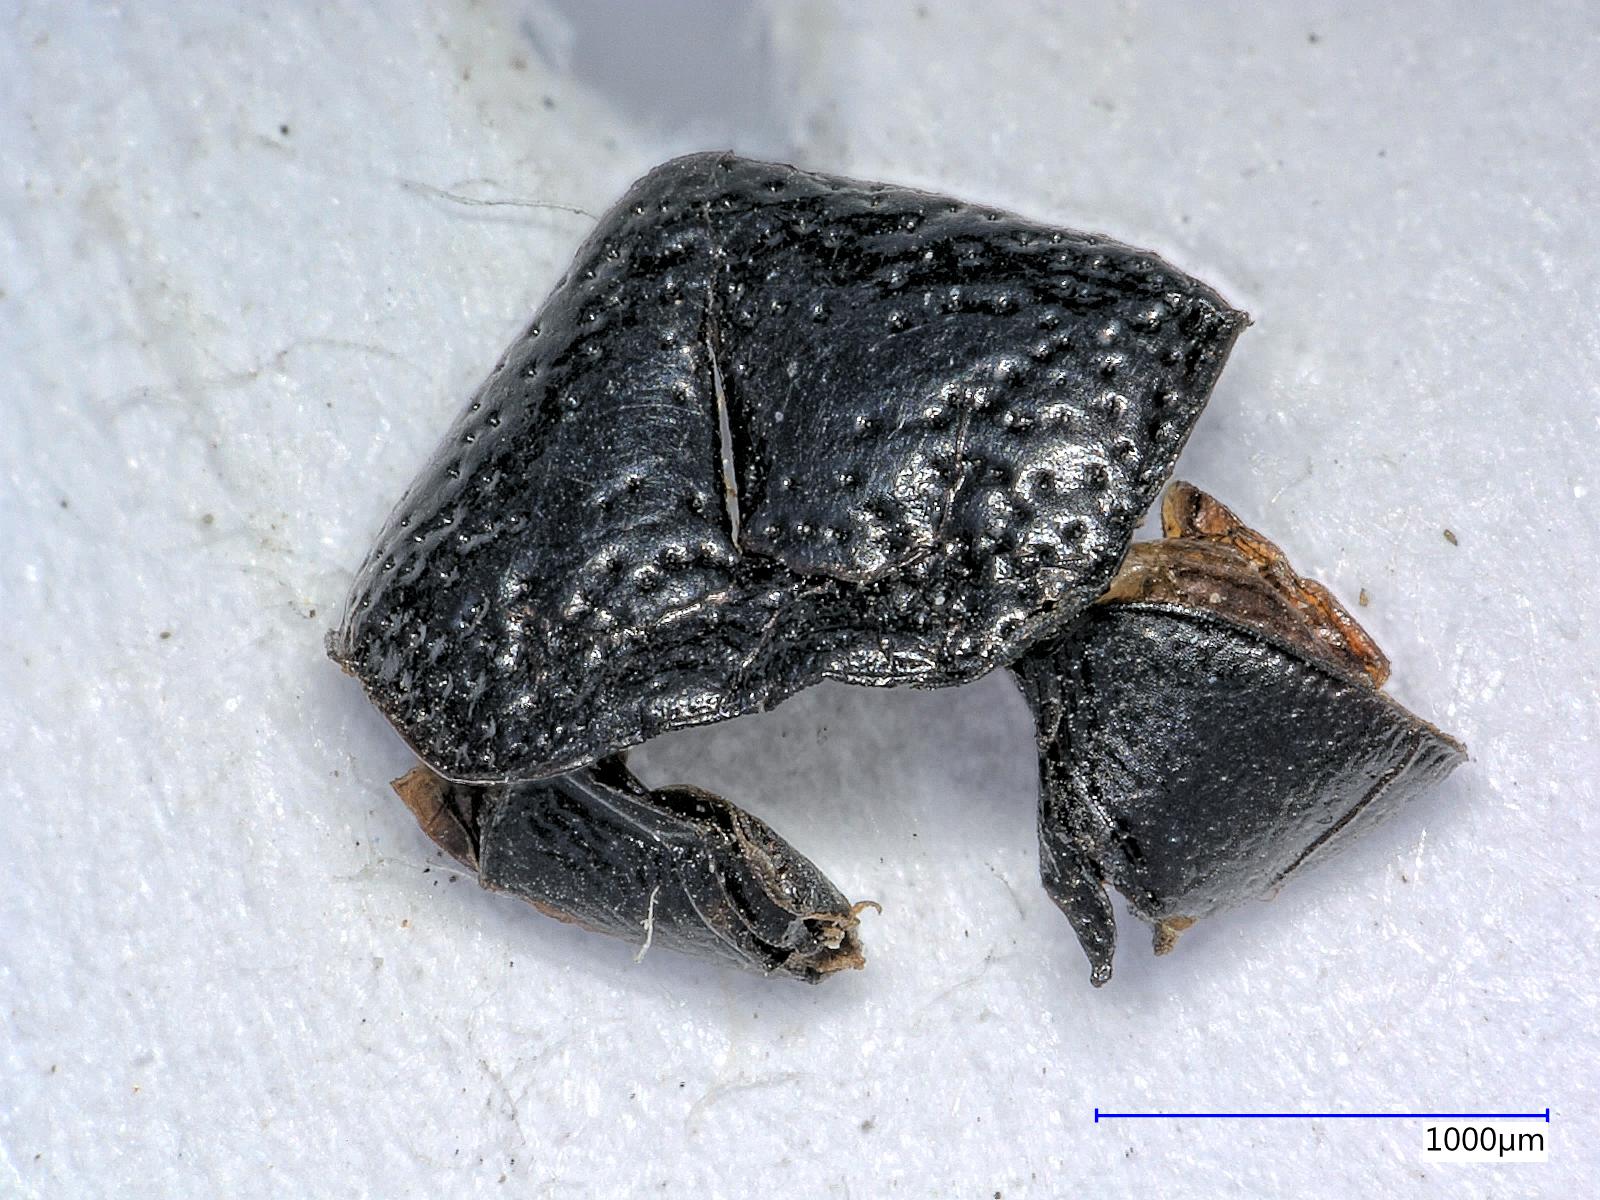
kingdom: Animalia
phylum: Arthropoda
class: Insecta
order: Coleoptera
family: Carabidae
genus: Dicheirus
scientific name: Dicheirus
